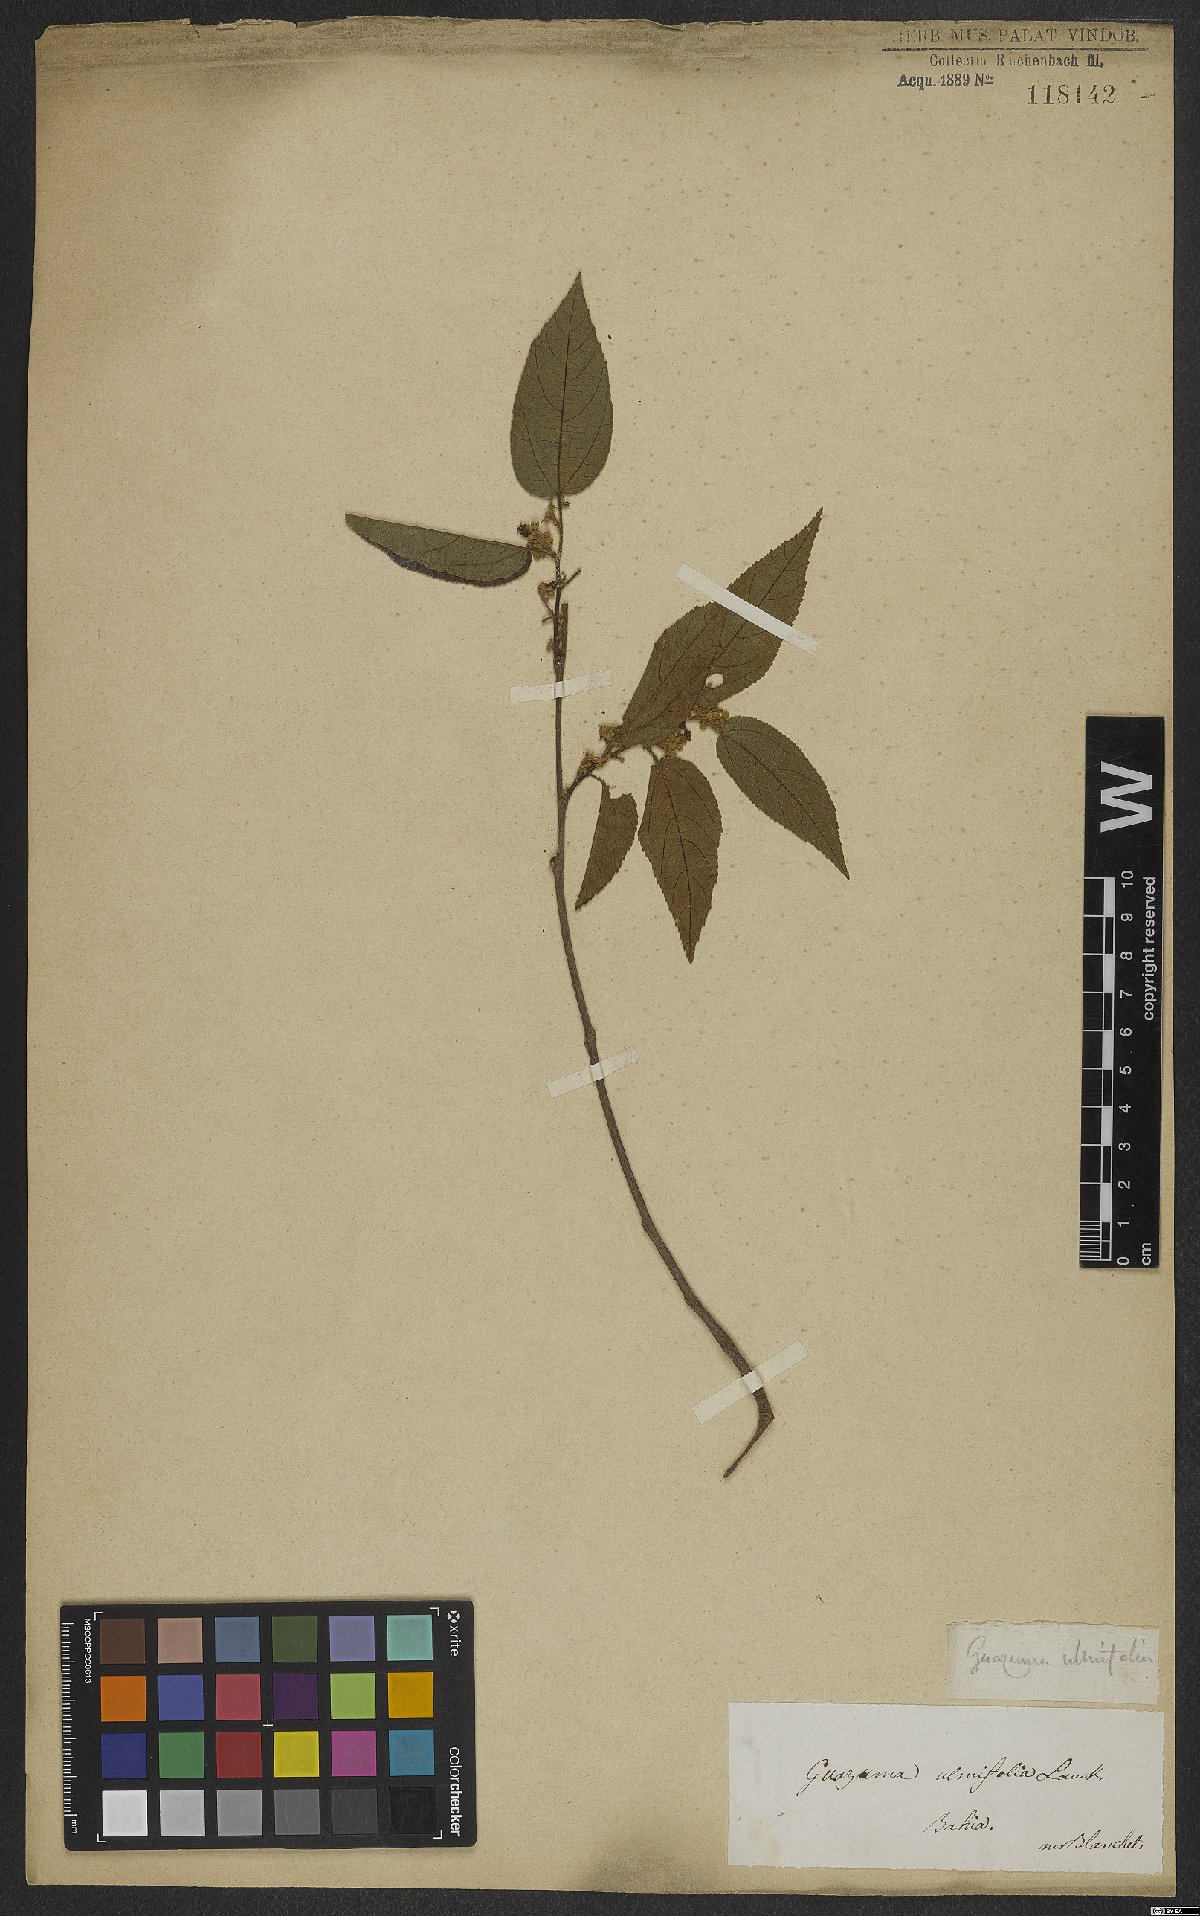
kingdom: Plantae
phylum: Tracheophyta
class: Magnoliopsida
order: Malvales
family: Malvaceae
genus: Guazuma
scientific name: Guazuma ulmifolia
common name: Bastard-cedar
